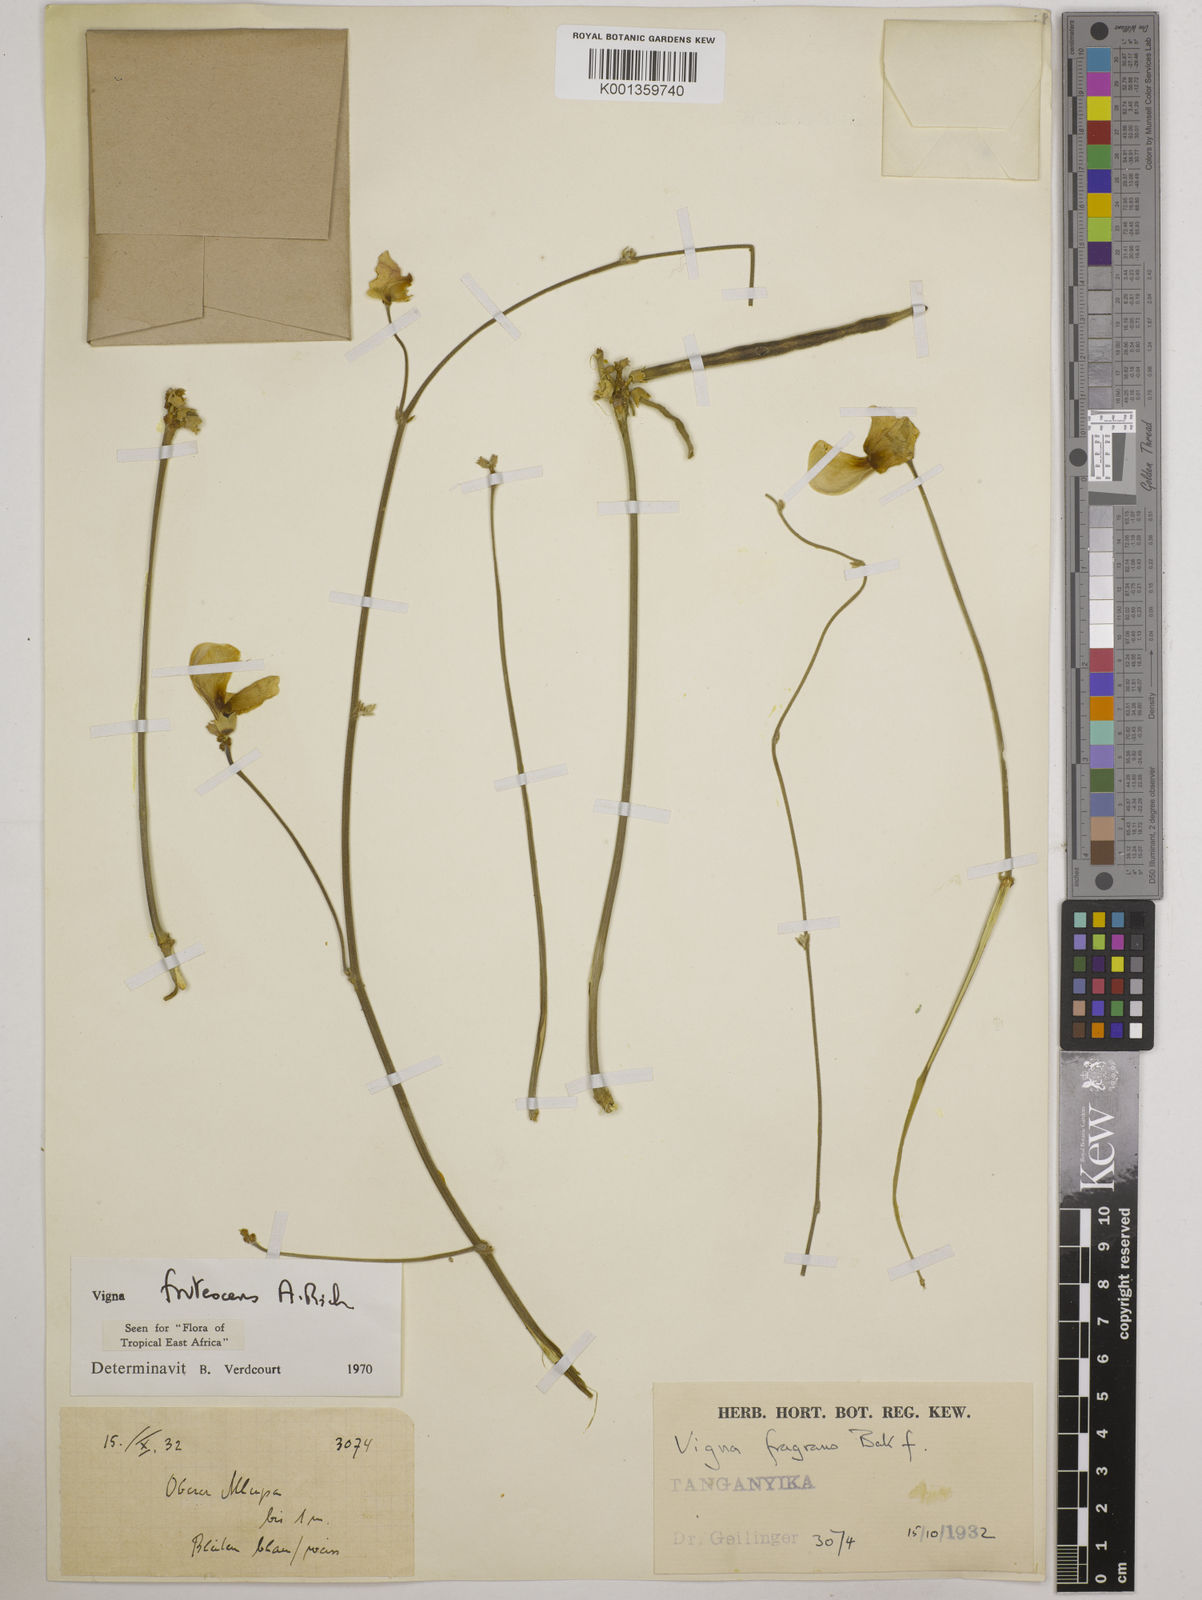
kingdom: Plantae
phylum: Tracheophyta
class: Magnoliopsida
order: Fabales
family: Fabaceae
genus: Vigna
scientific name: Vigna frutescens
